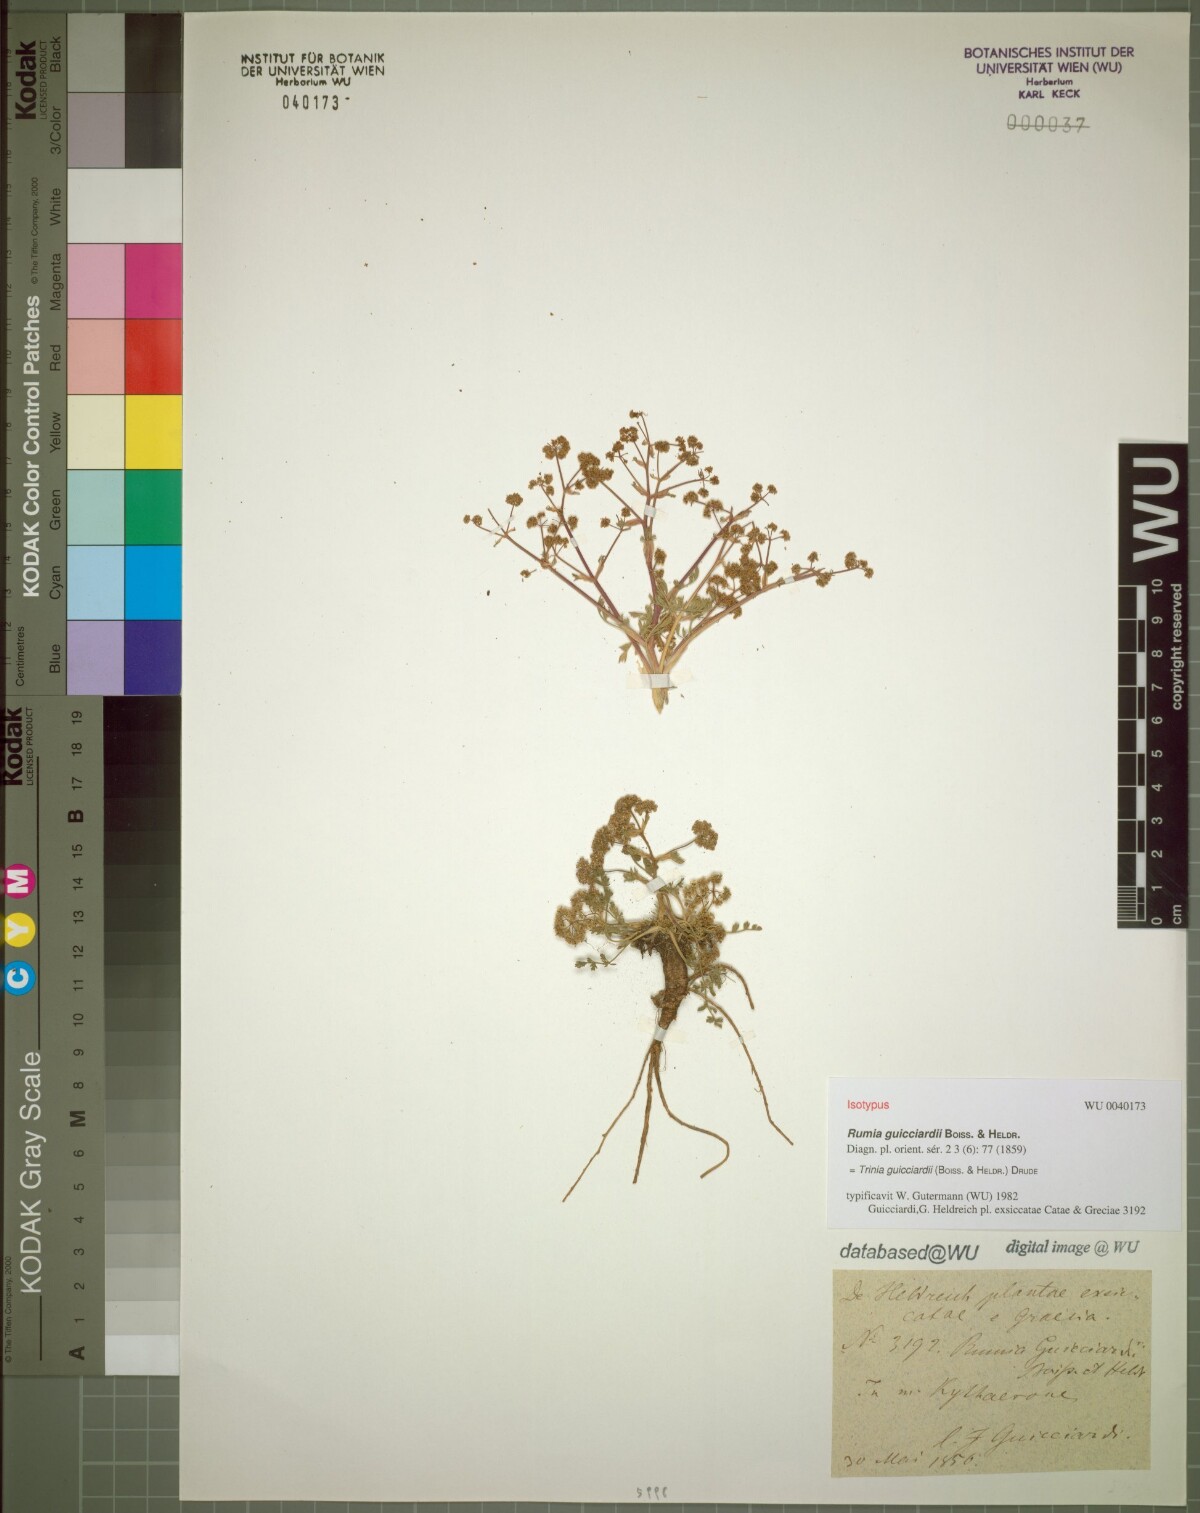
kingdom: Plantae
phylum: Tracheophyta
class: Magnoliopsida
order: Apiales
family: Apiaceae
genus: Trinia
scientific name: Trinia guicciardii
